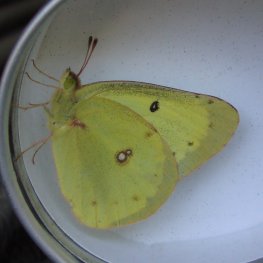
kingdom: Animalia
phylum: Arthropoda
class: Insecta
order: Lepidoptera
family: Pieridae
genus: Colias
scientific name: Colias philodice
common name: Clouded Sulphur
